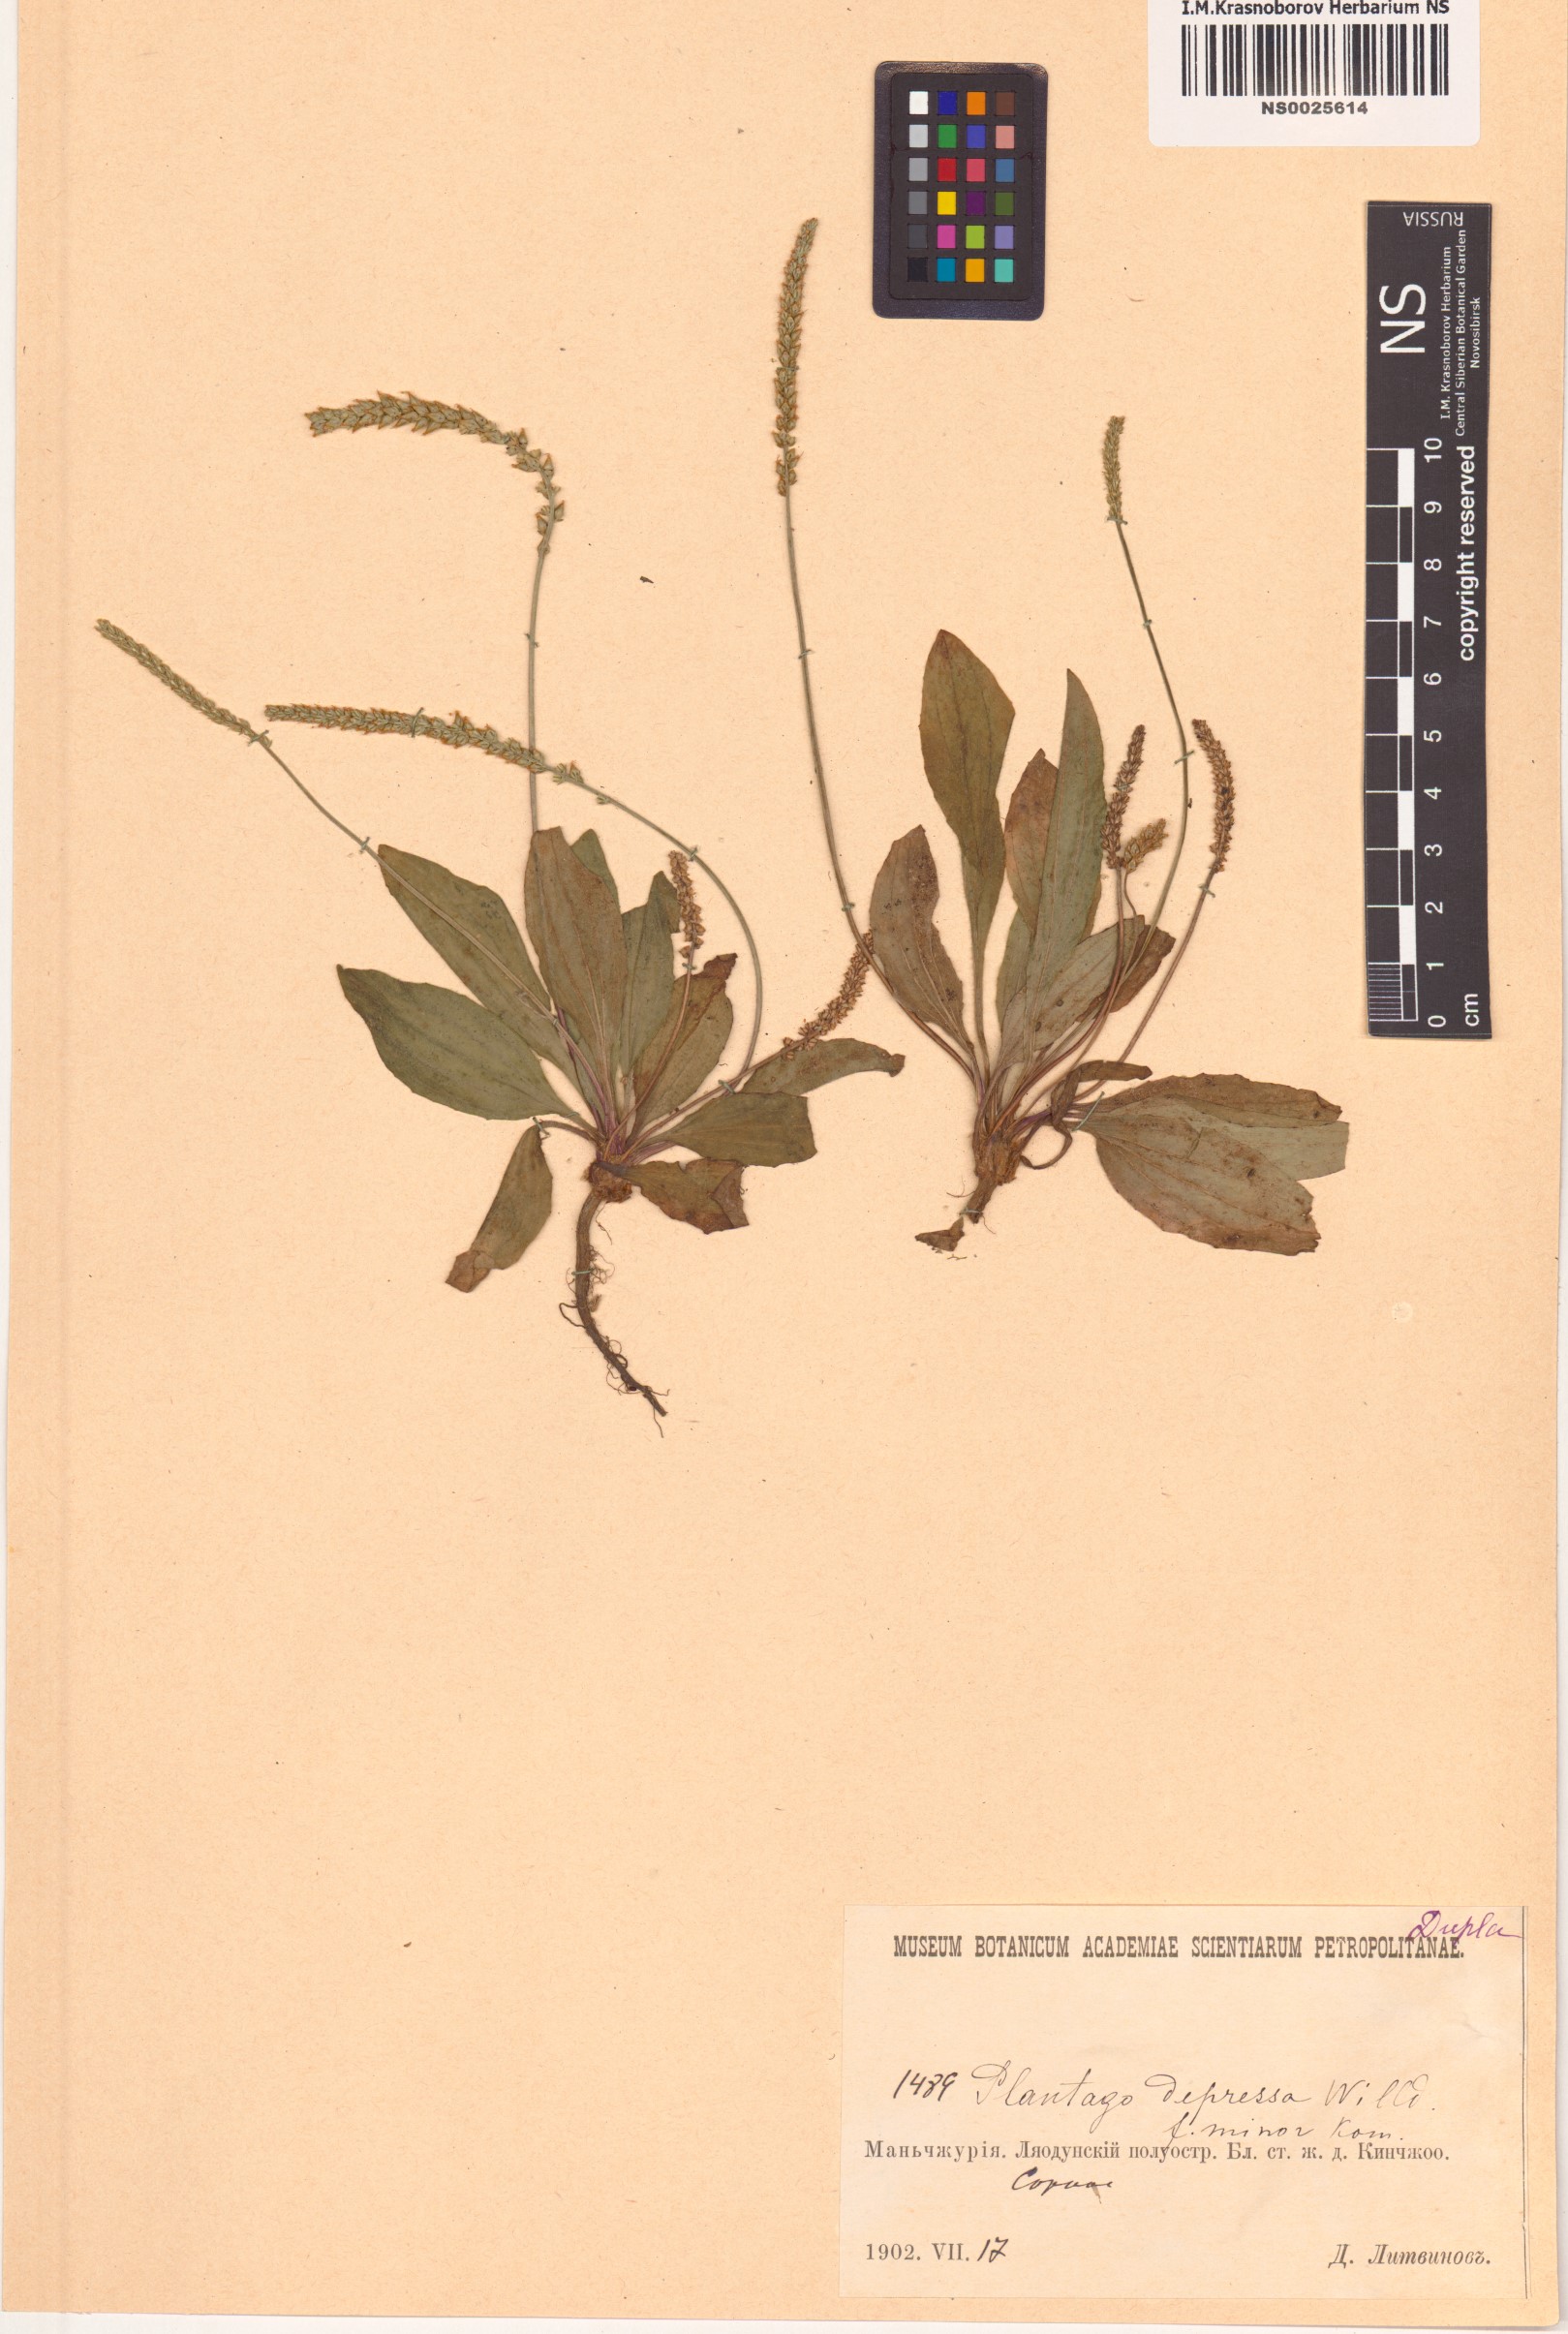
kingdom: Plantae
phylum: Tracheophyta
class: Magnoliopsida
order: Lamiales
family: Plantaginaceae
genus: Plantago
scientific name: Plantago depressa
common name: Depressed plantain
